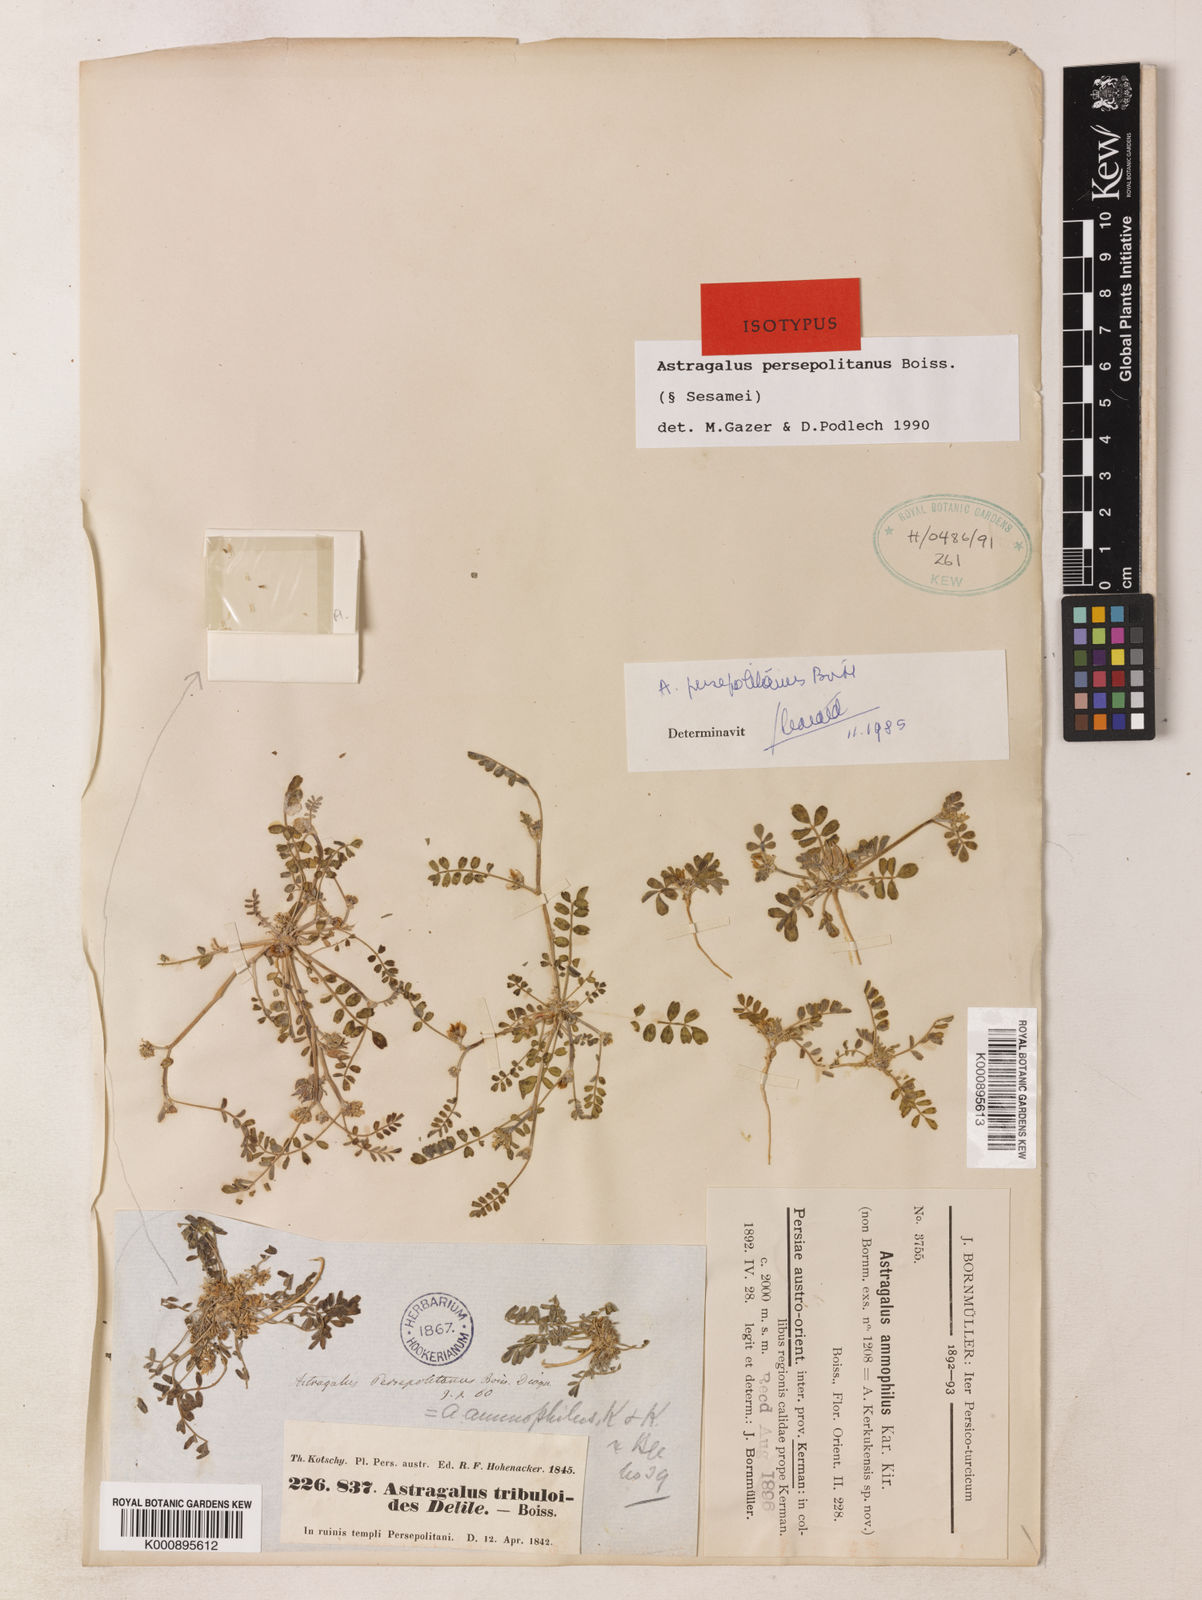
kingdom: Plantae
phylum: Tracheophyta
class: Magnoliopsida
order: Fabales
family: Fabaceae
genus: Astragalus
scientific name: Astragalus ammophilus
